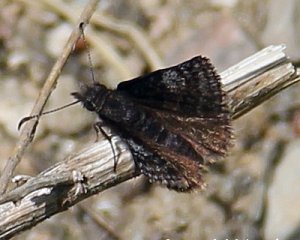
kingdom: Animalia
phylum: Arthropoda
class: Insecta
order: Lepidoptera
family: Hesperiidae
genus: Erynnis
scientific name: Erynnis icelus
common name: Dreamy Duskywing
